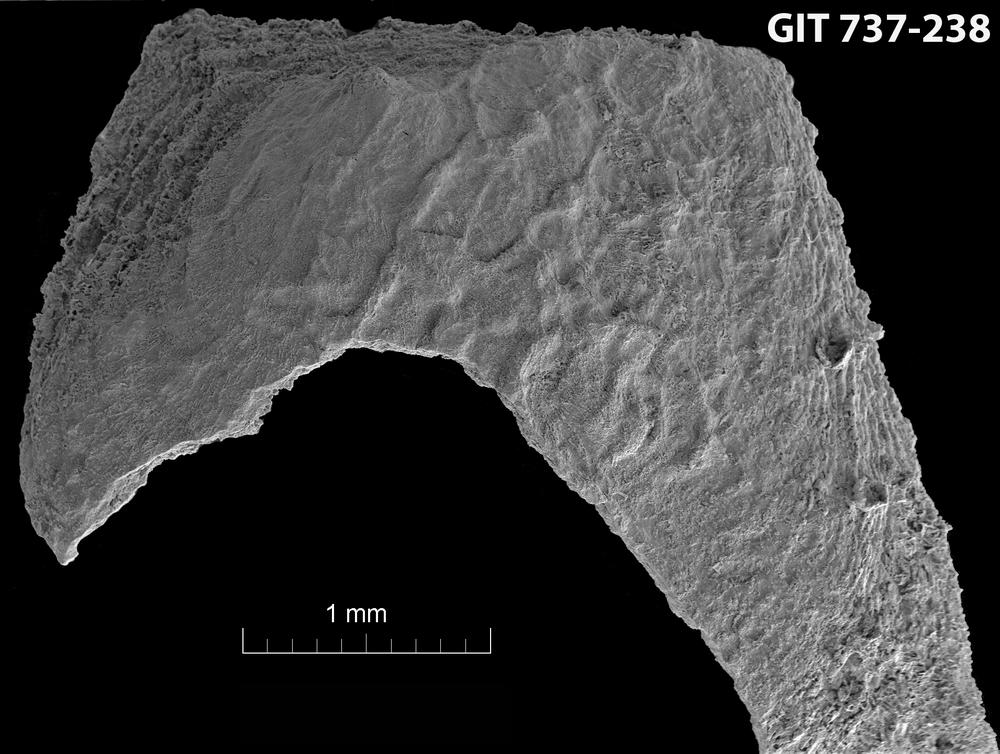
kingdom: Animalia
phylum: Brachiopoda
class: Craniata
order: Craniida
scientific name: Craniida
